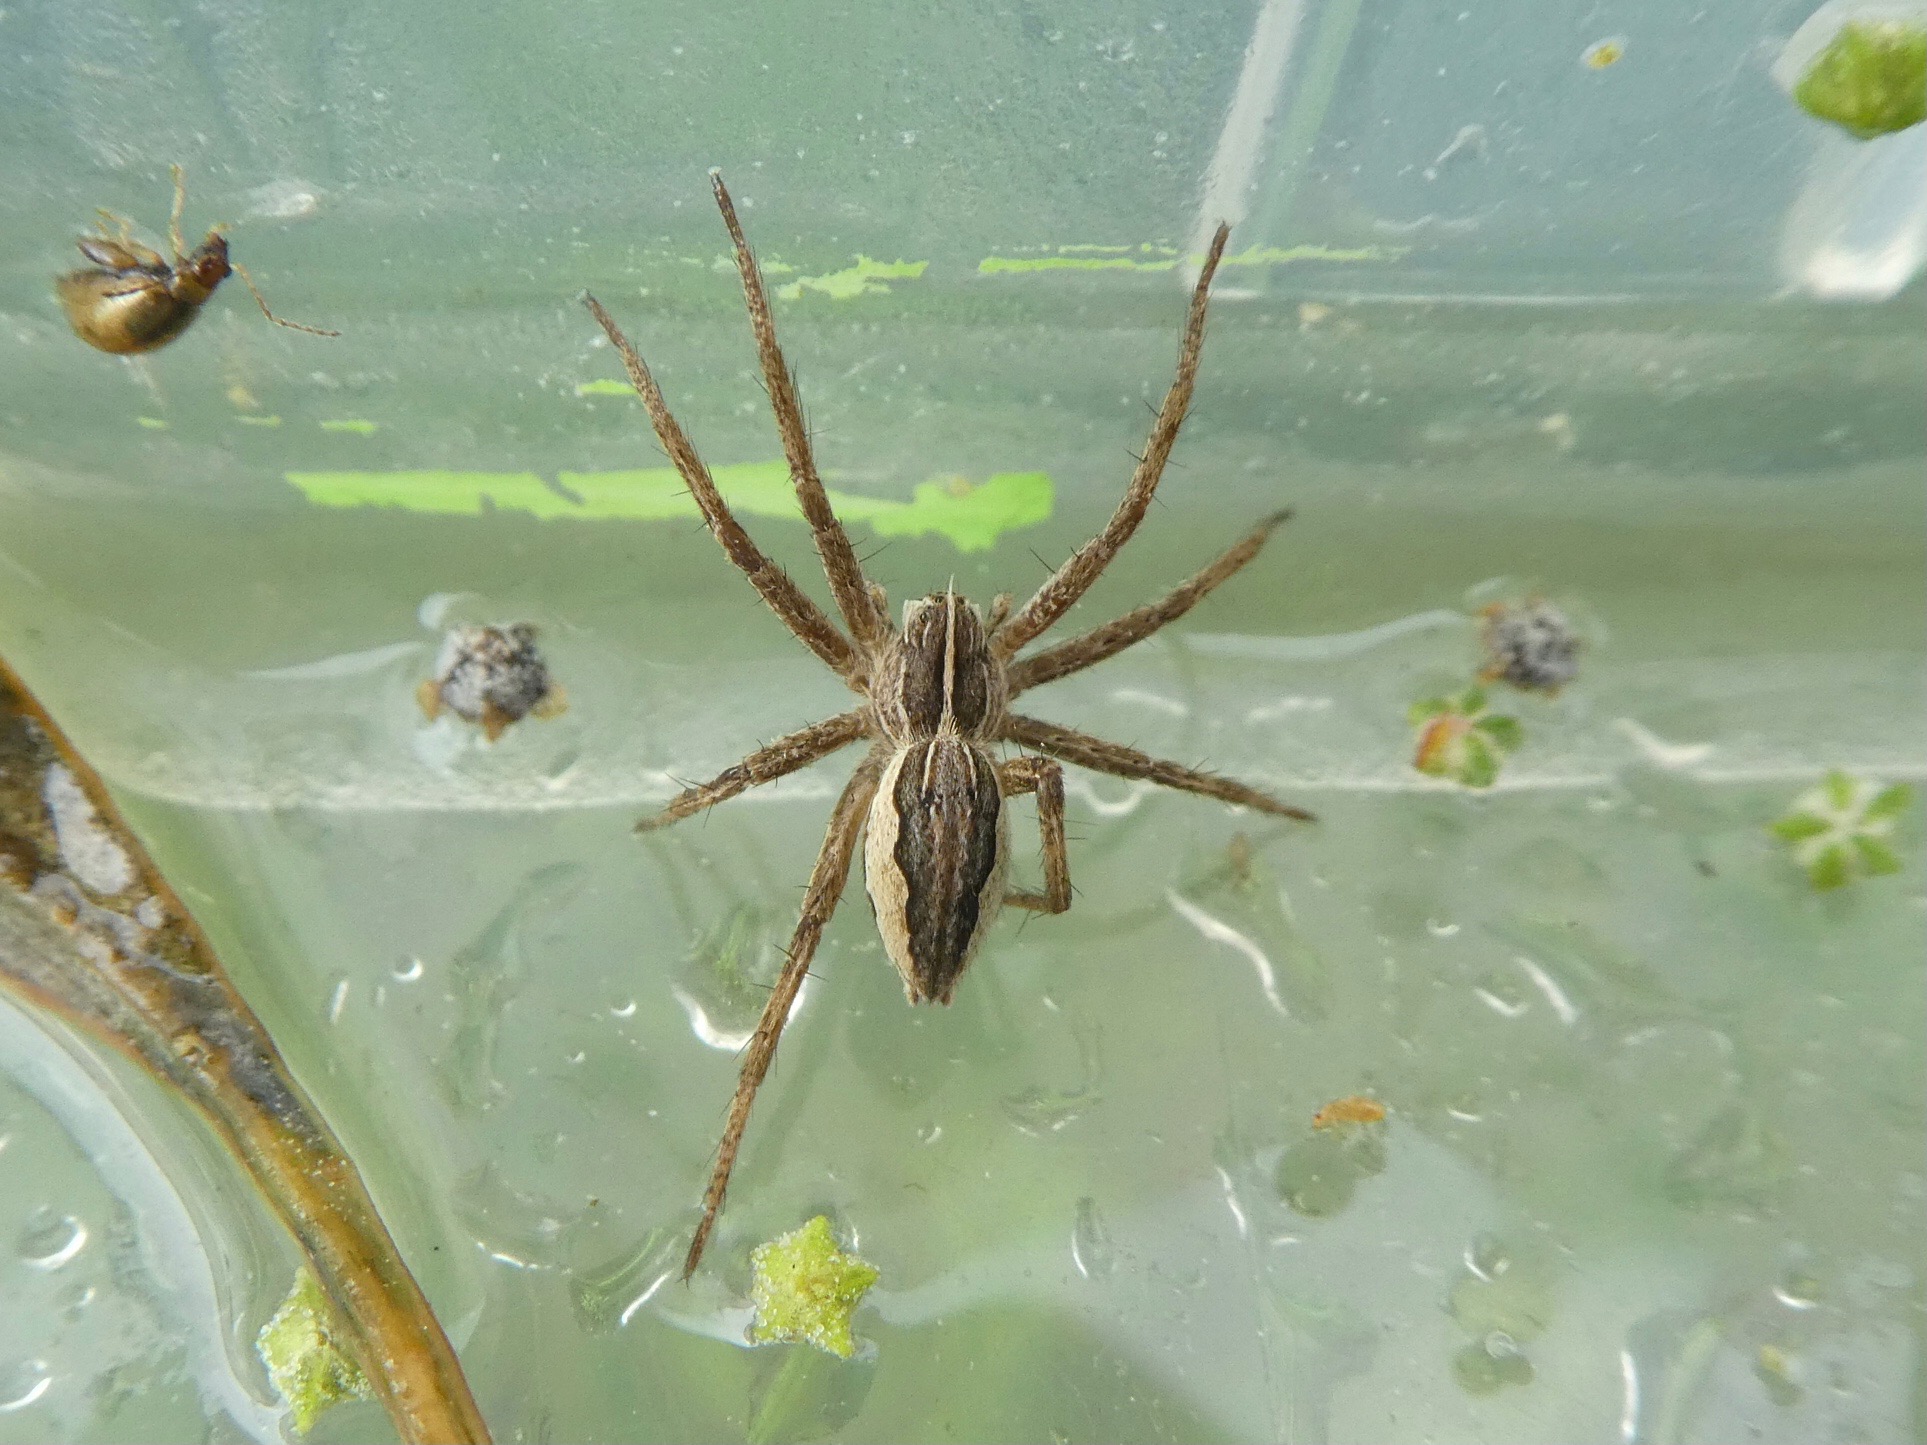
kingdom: Animalia
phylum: Arthropoda
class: Arachnida
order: Araneae
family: Pisauridae
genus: Pisaura
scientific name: Pisaura mirabilis
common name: Almindelig rovedderkop
